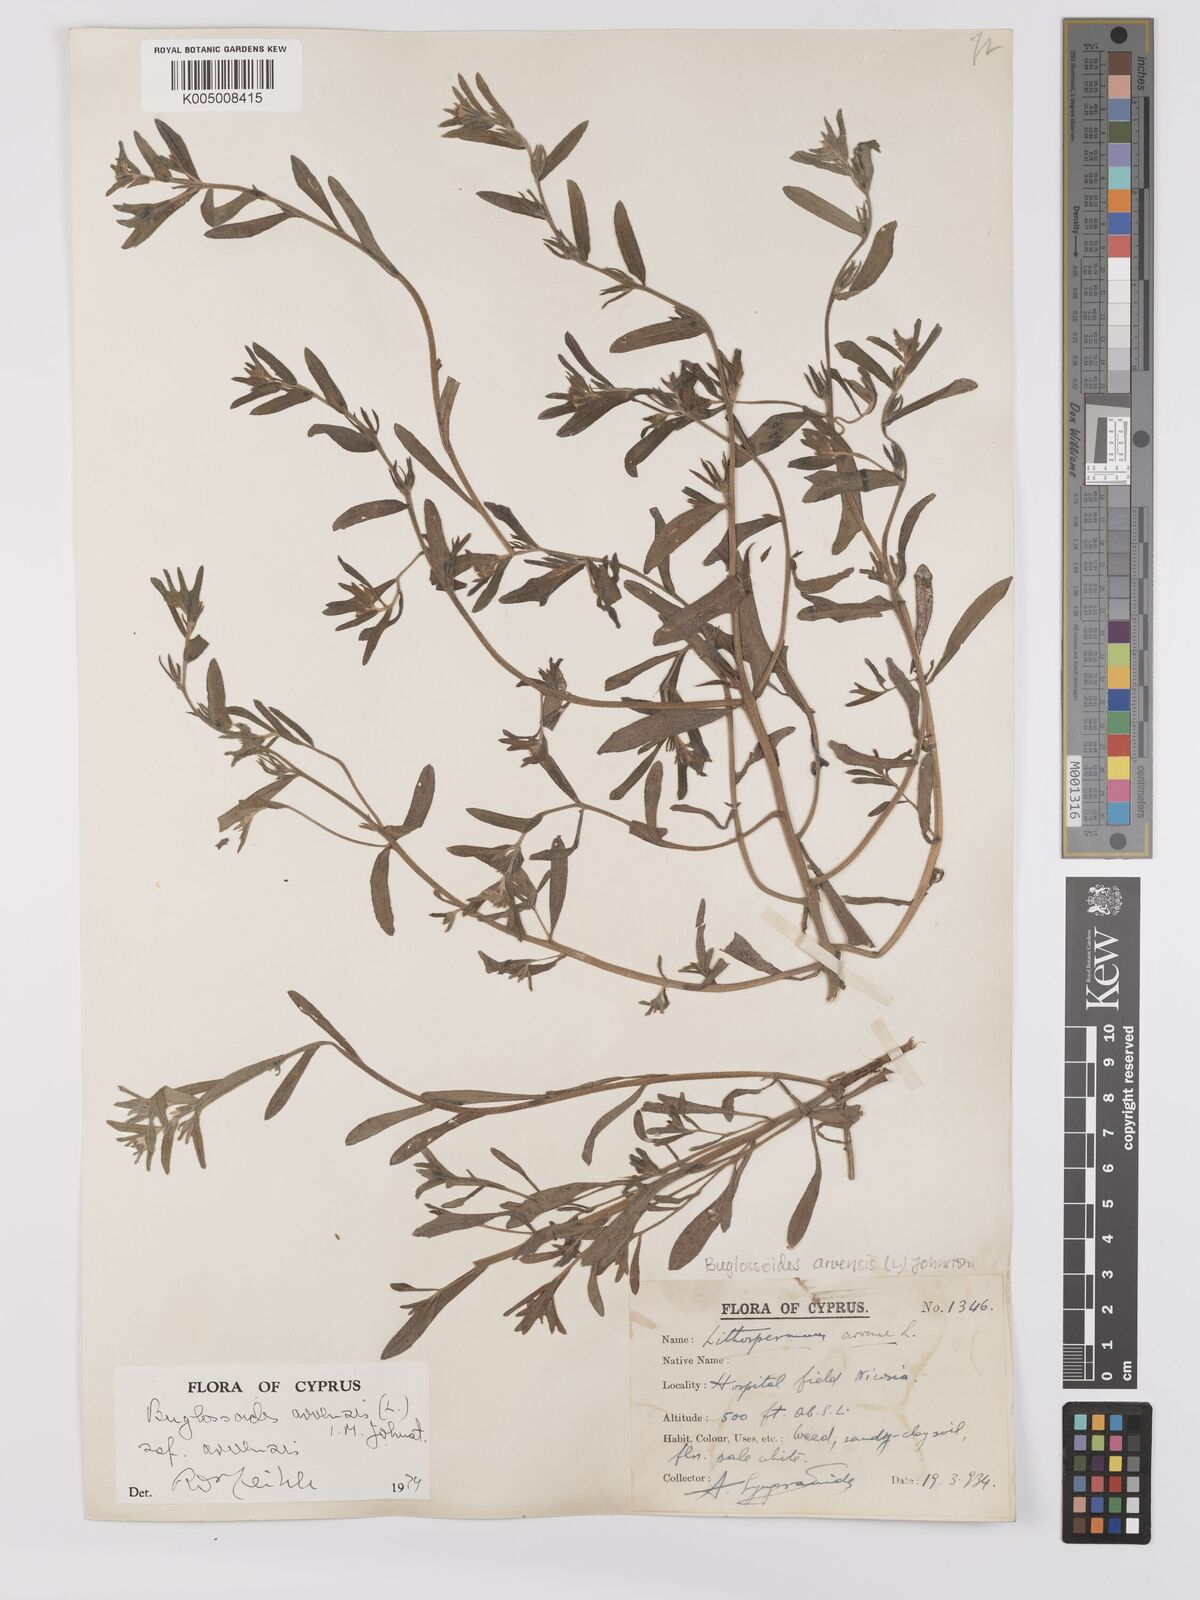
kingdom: Plantae
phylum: Tracheophyta
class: Magnoliopsida
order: Boraginales
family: Boraginaceae
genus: Buglossoides
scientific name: Buglossoides arvensis
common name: Corn gromwell
